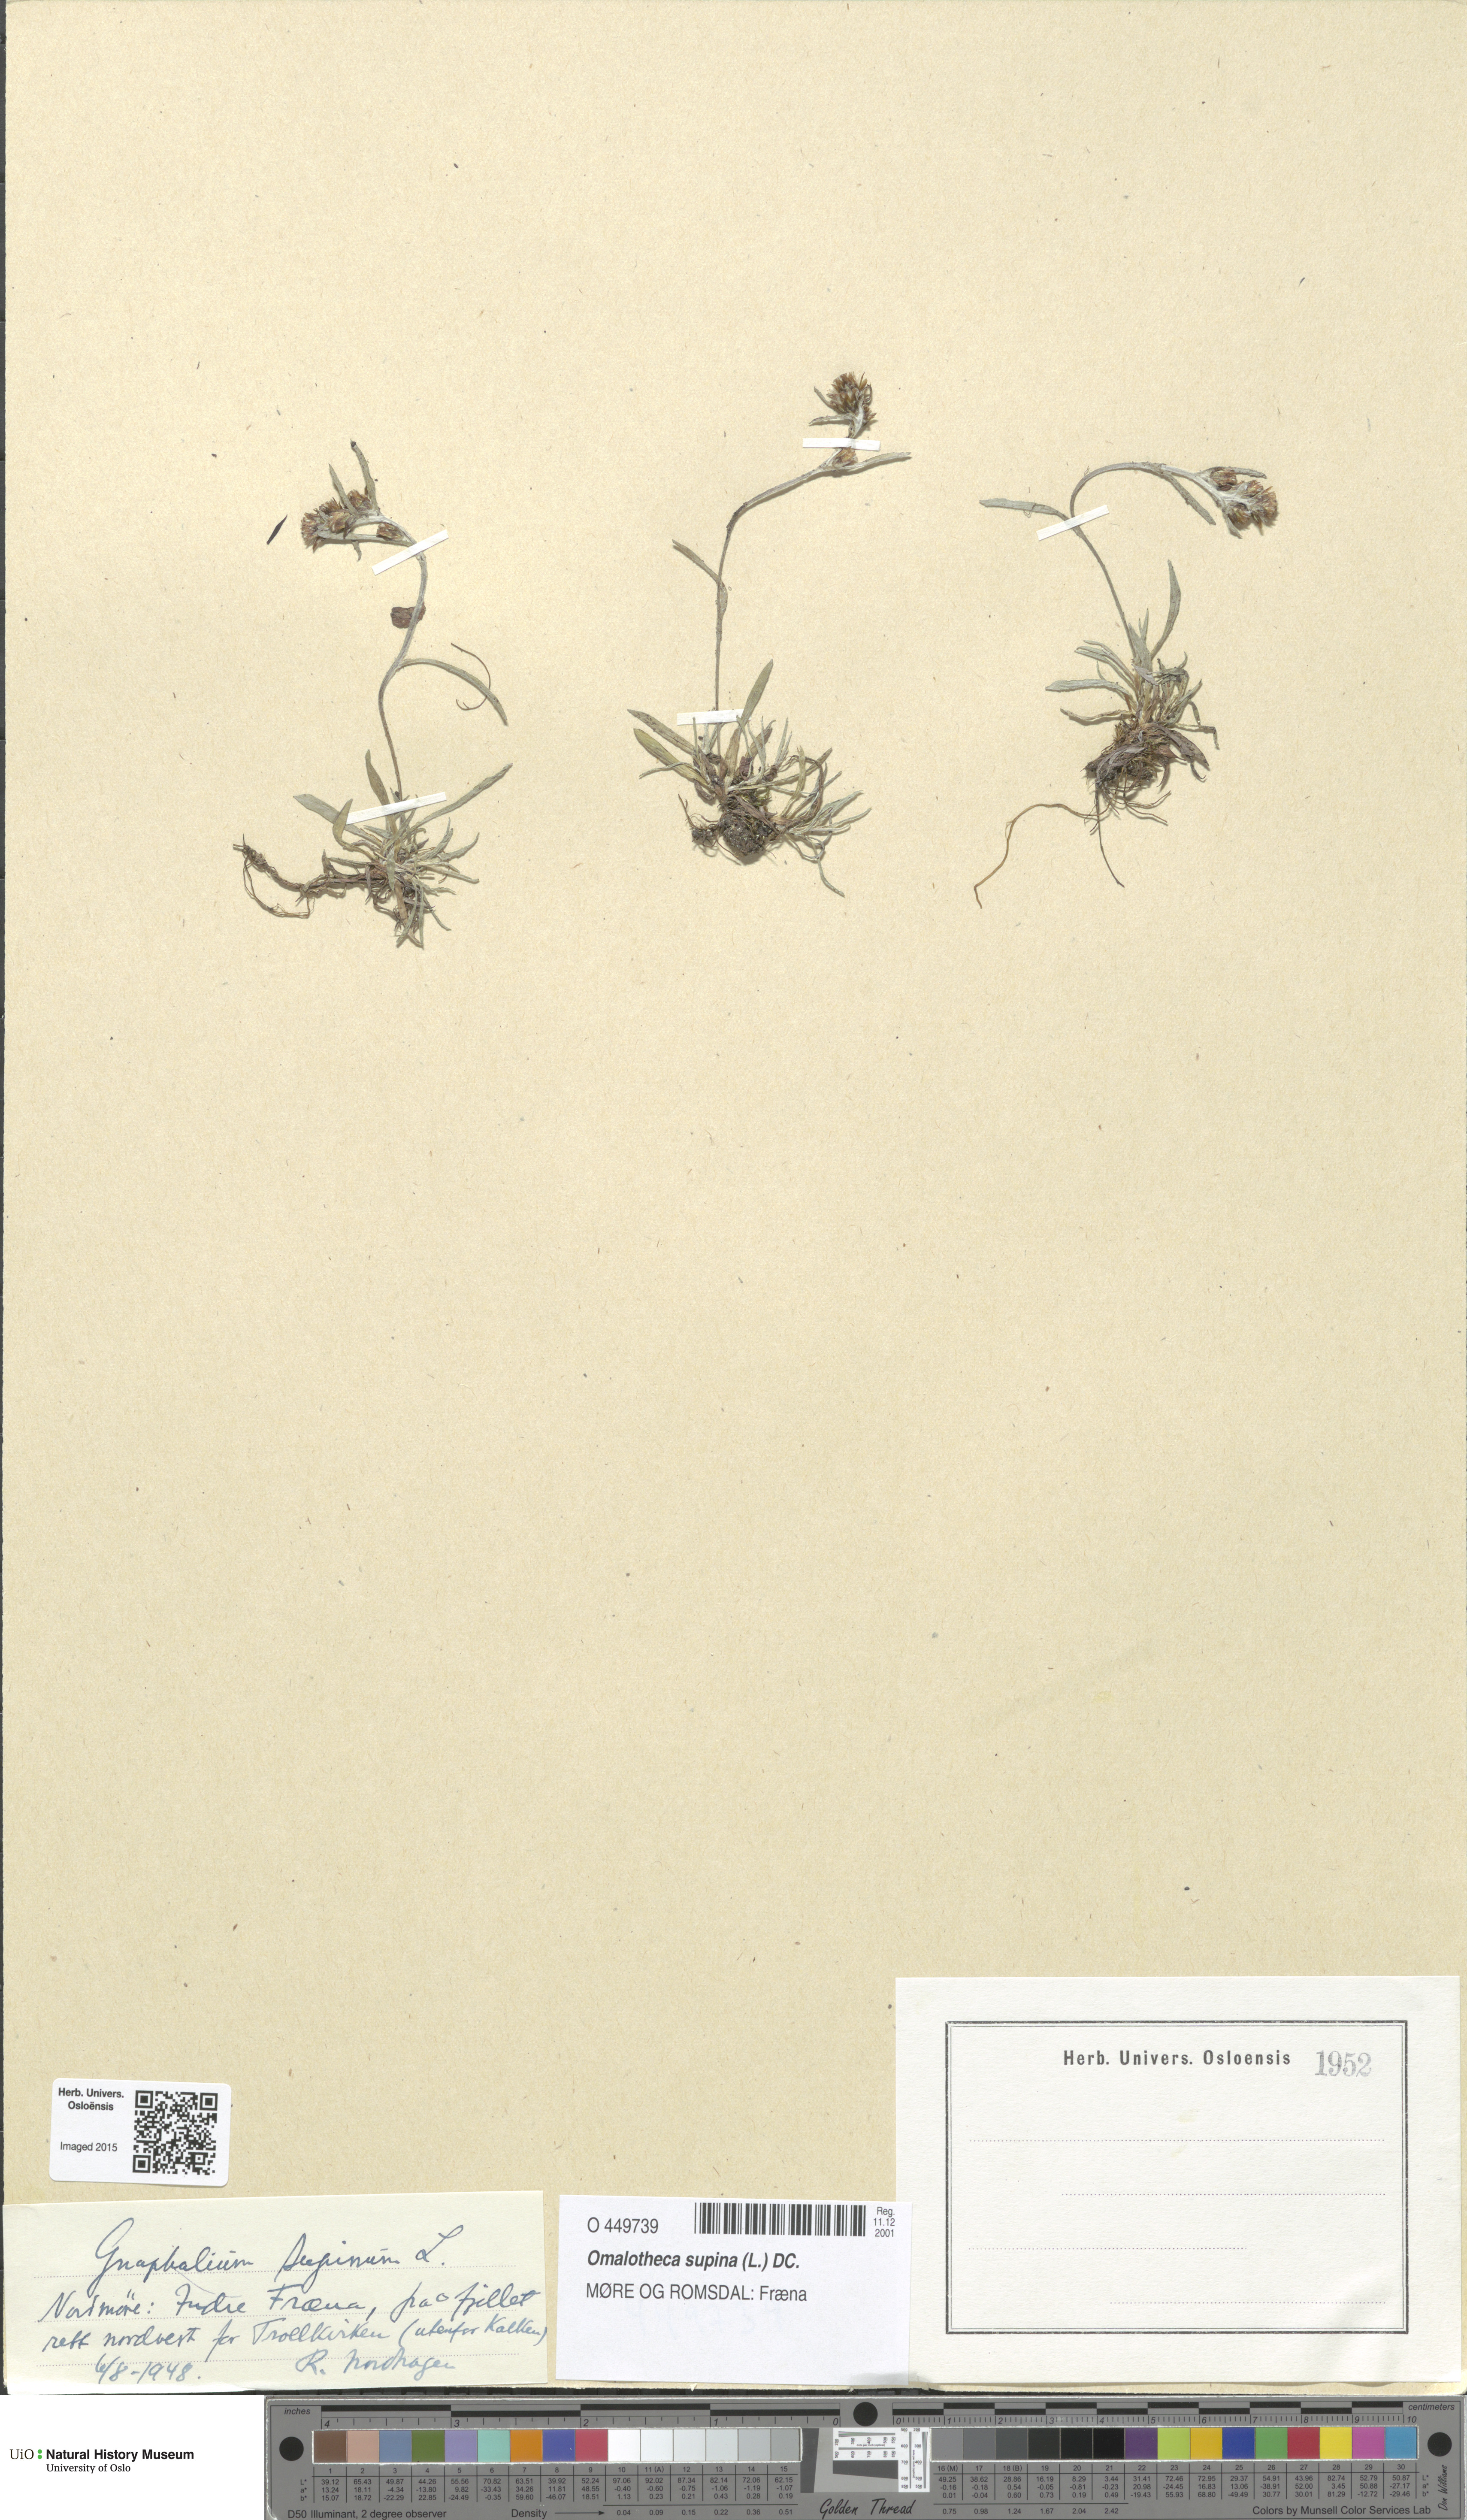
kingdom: Plantae
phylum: Tracheophyta
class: Magnoliopsida
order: Asterales
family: Asteraceae
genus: Omalotheca
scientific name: Omalotheca supina
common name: Alpine arctic-cudweed
